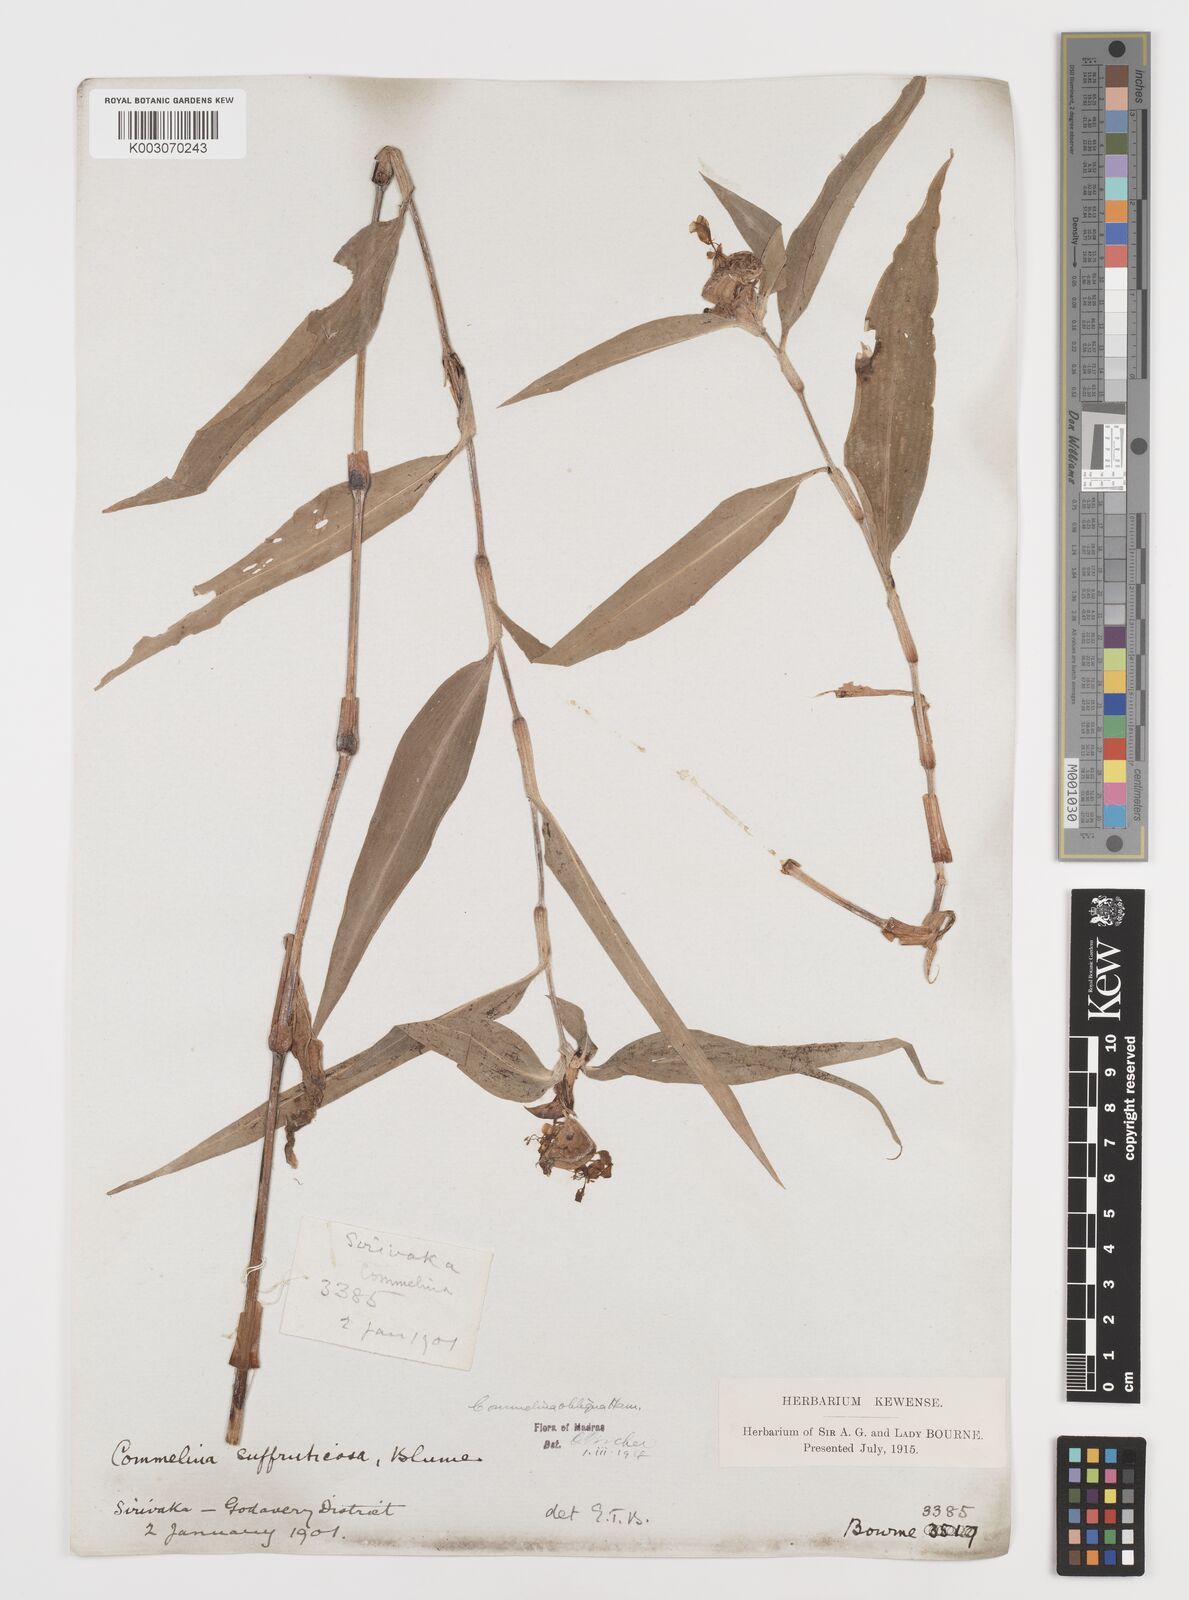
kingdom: Plantae
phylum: Tracheophyta
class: Liliopsida
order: Commelinales
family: Commelinaceae
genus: Commelina
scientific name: Commelina paludosa
